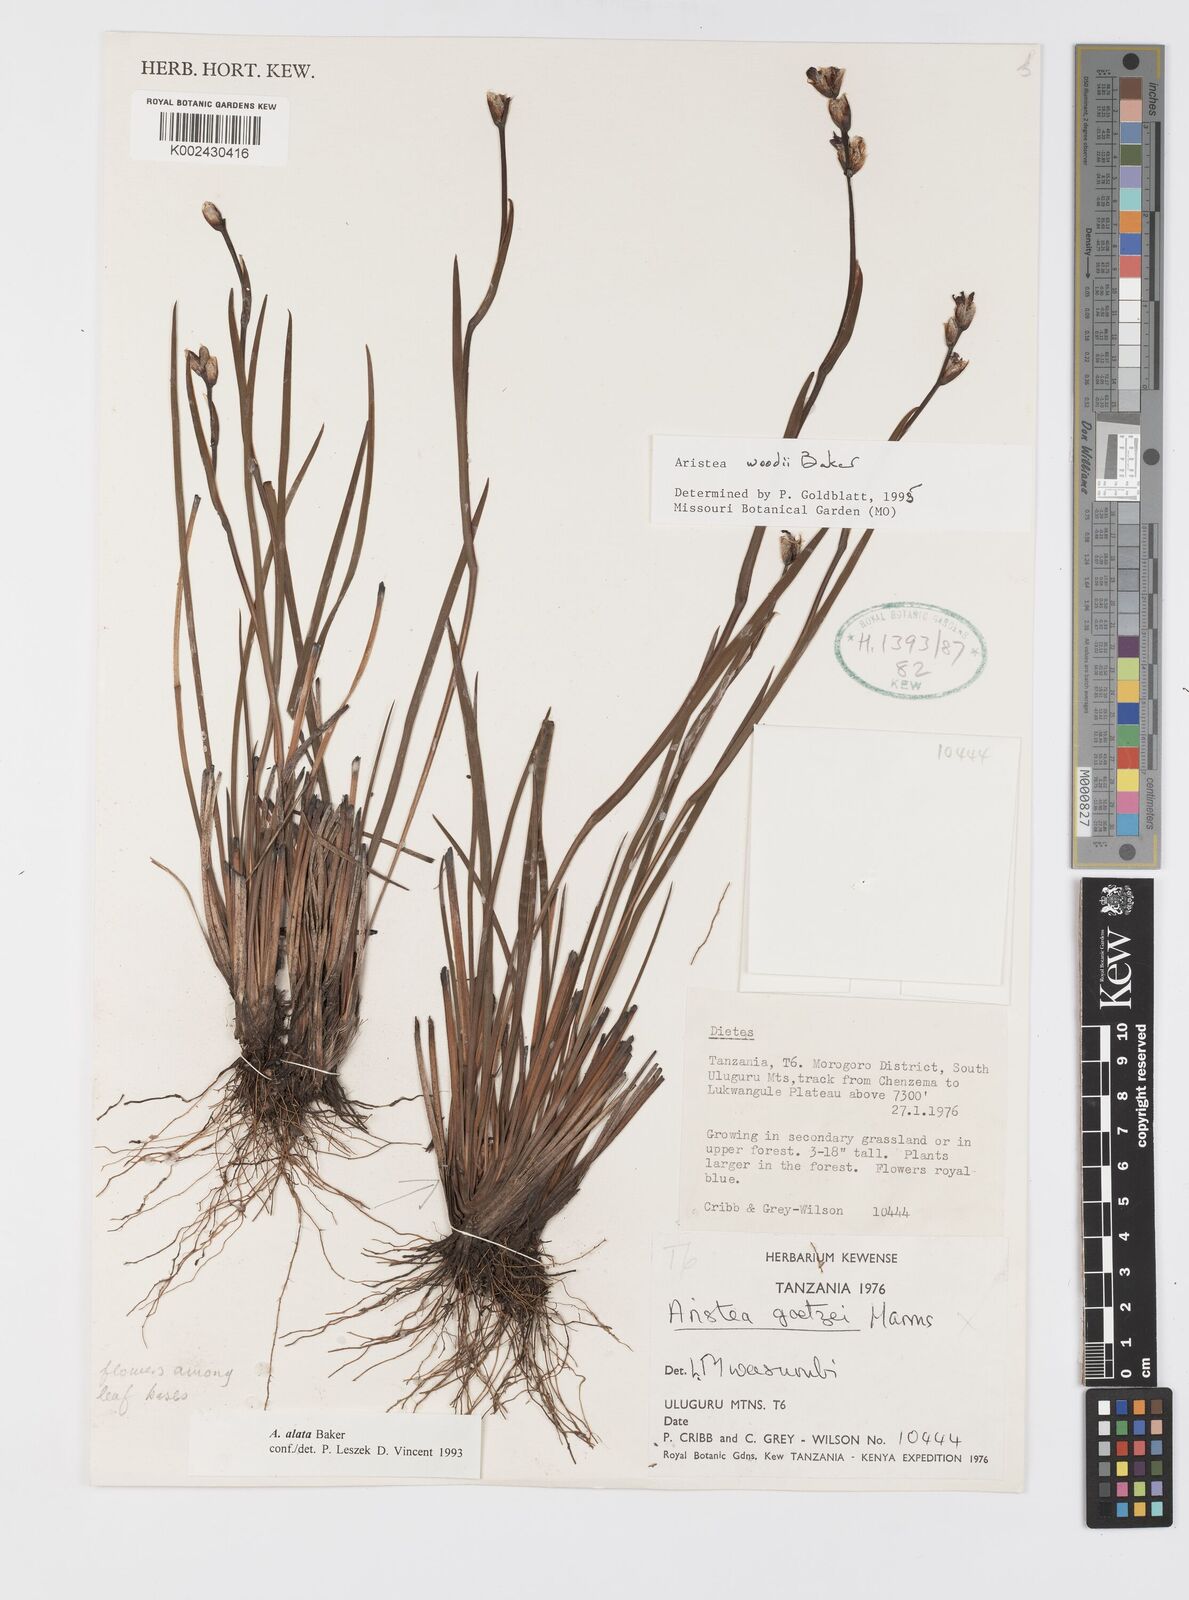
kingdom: Plantae
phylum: Tracheophyta
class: Liliopsida
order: Asparagales
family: Iridaceae
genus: Aristea
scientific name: Aristea torulosa
